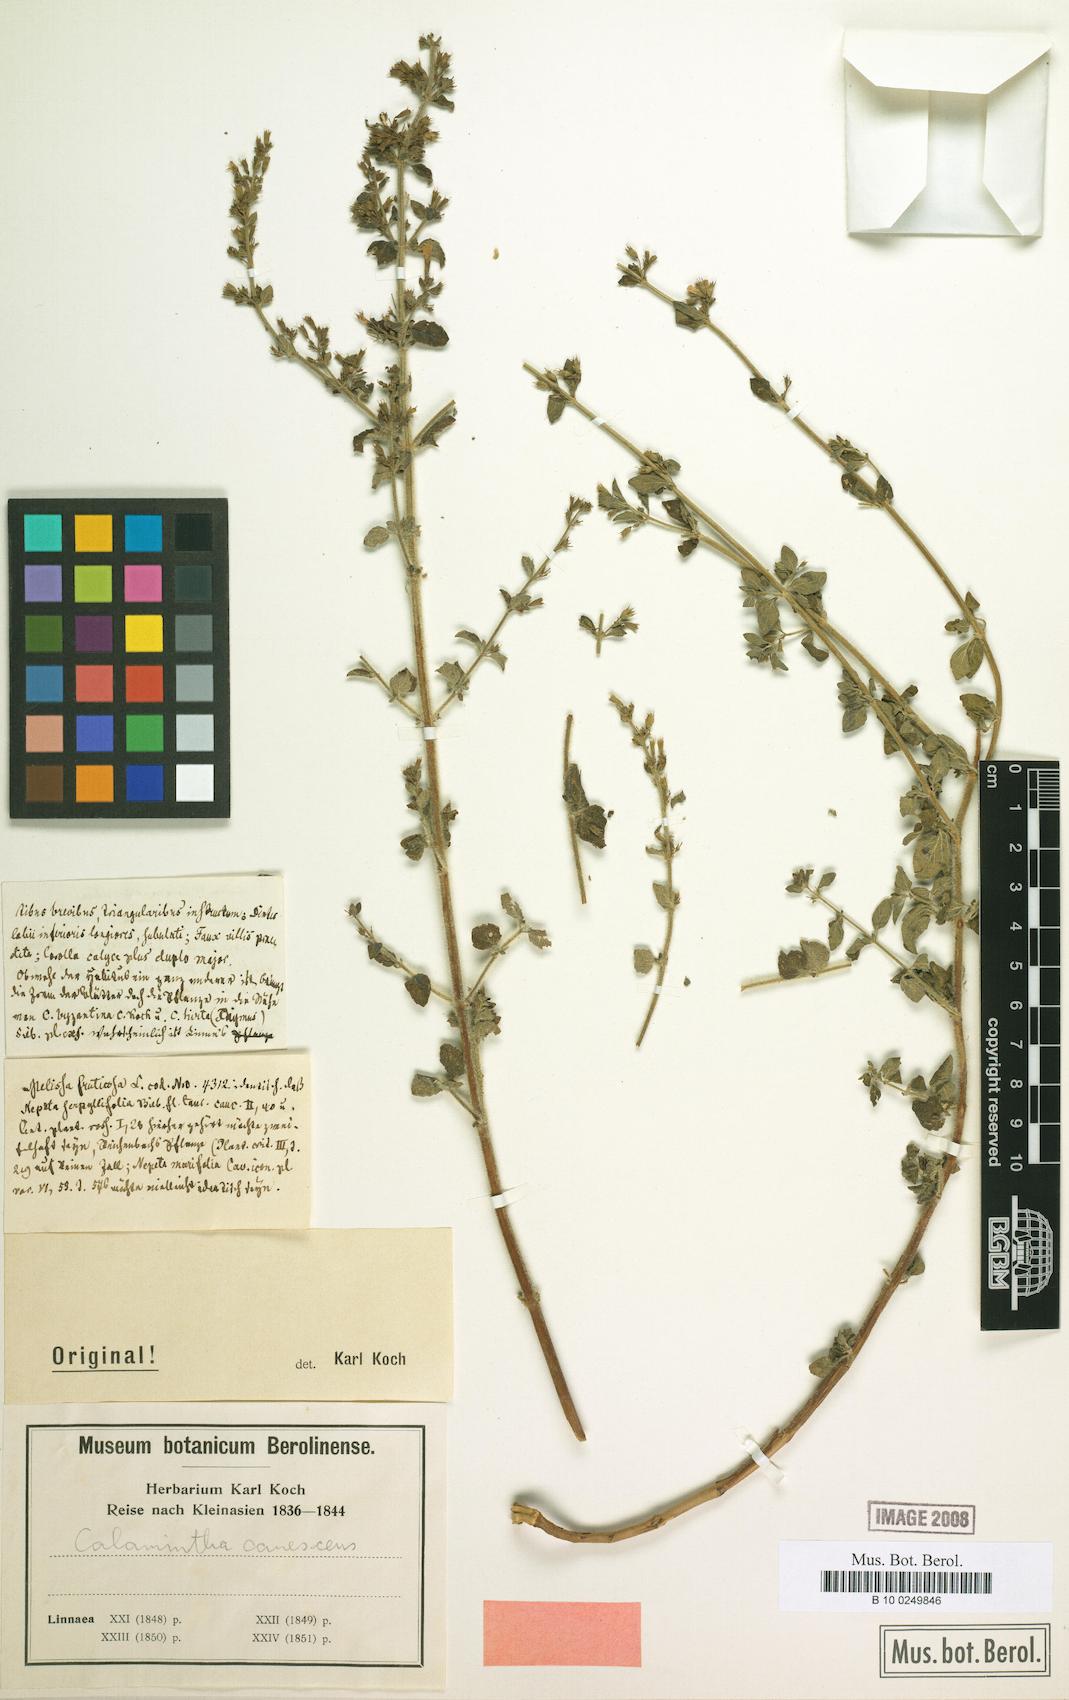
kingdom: Plantae
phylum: Tracheophyta
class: Magnoliopsida
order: Lamiales
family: Lamiaceae
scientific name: Lamiaceae
